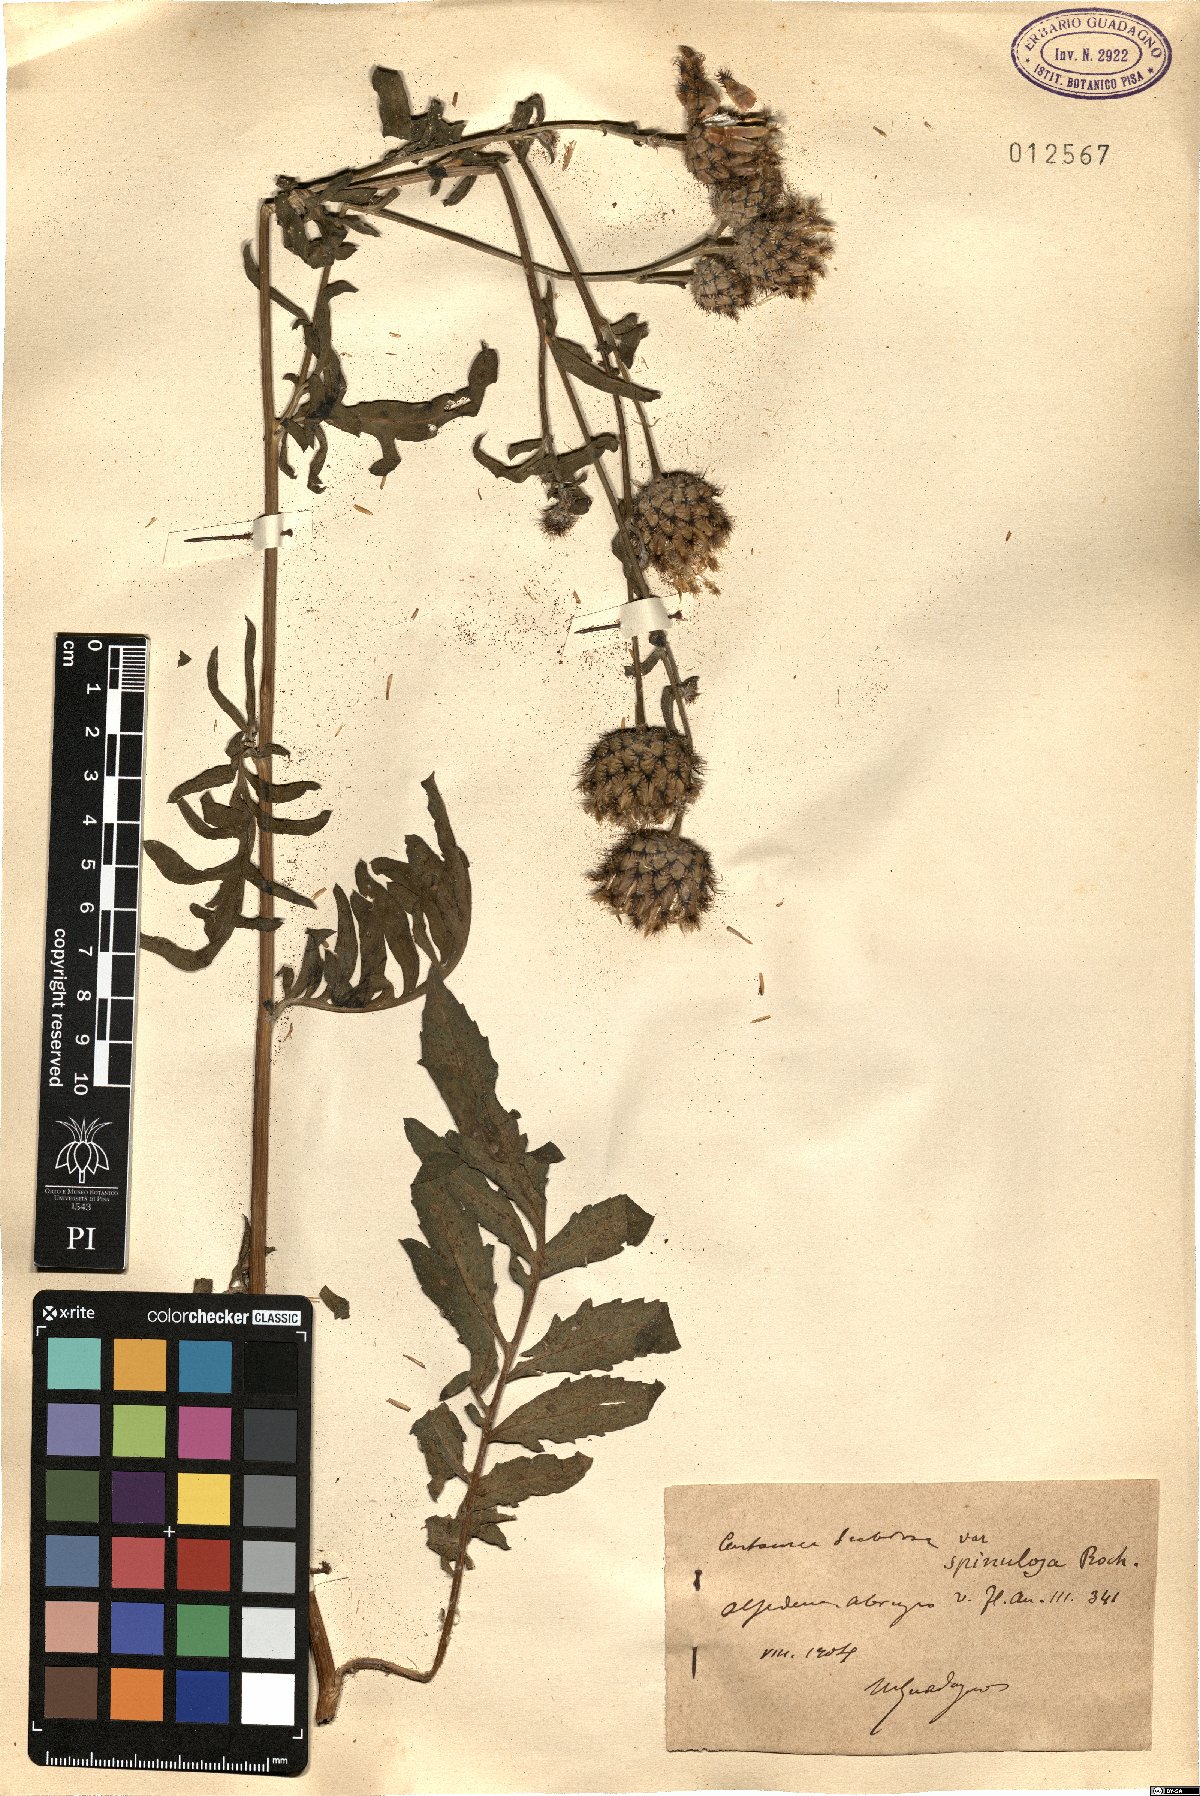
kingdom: Plantae
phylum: Tracheophyta
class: Magnoliopsida
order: Asterales
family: Asteraceae
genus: Centaurea
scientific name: Centaurea scabiosa
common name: Greater knapweed
